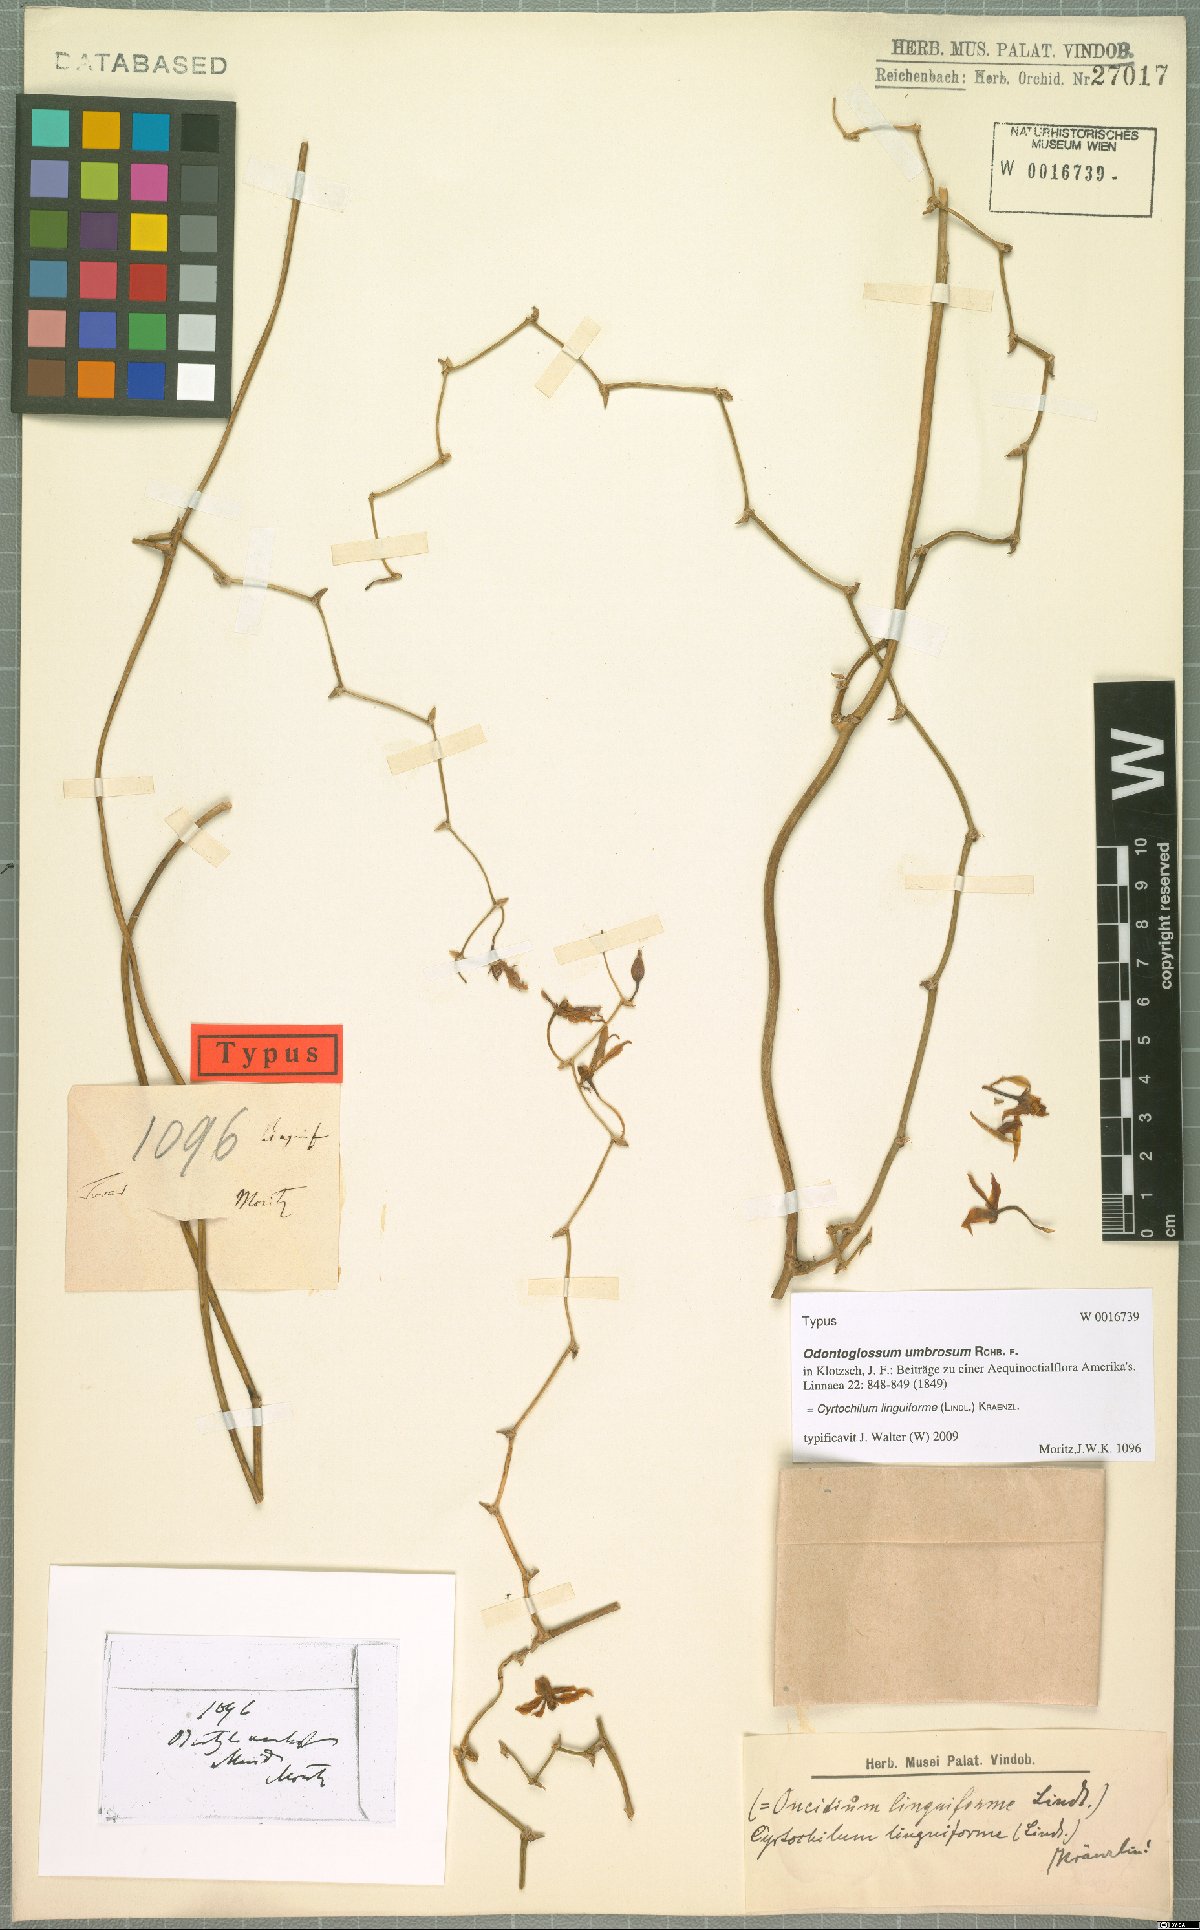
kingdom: Plantae
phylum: Tracheophyta
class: Liliopsida
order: Asparagales
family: Orchidaceae
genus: Cyrtochilum
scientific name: Cyrtochilum linguiforme
